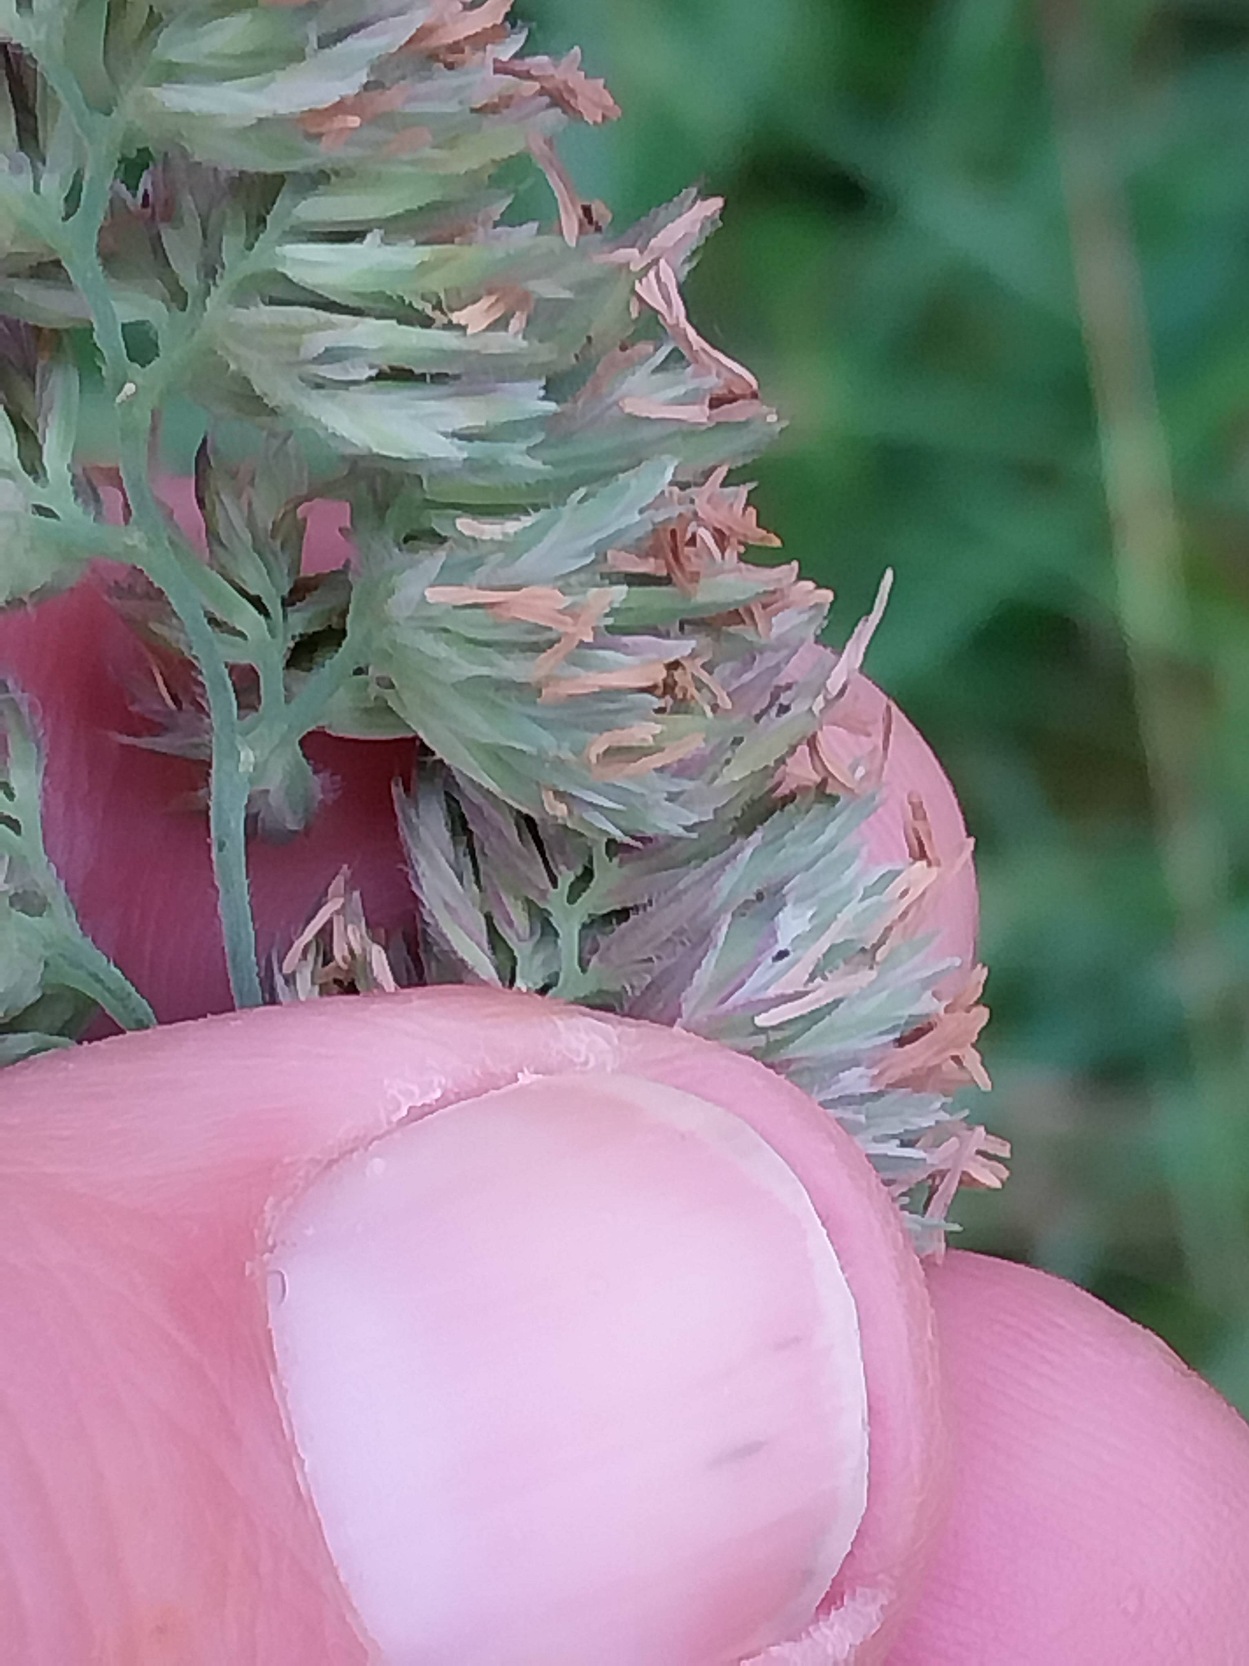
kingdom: Plantae
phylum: Tracheophyta
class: Liliopsida
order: Poales
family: Poaceae
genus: Dactylis
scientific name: Dactylis glomerata
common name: Almindelig hundegræs
